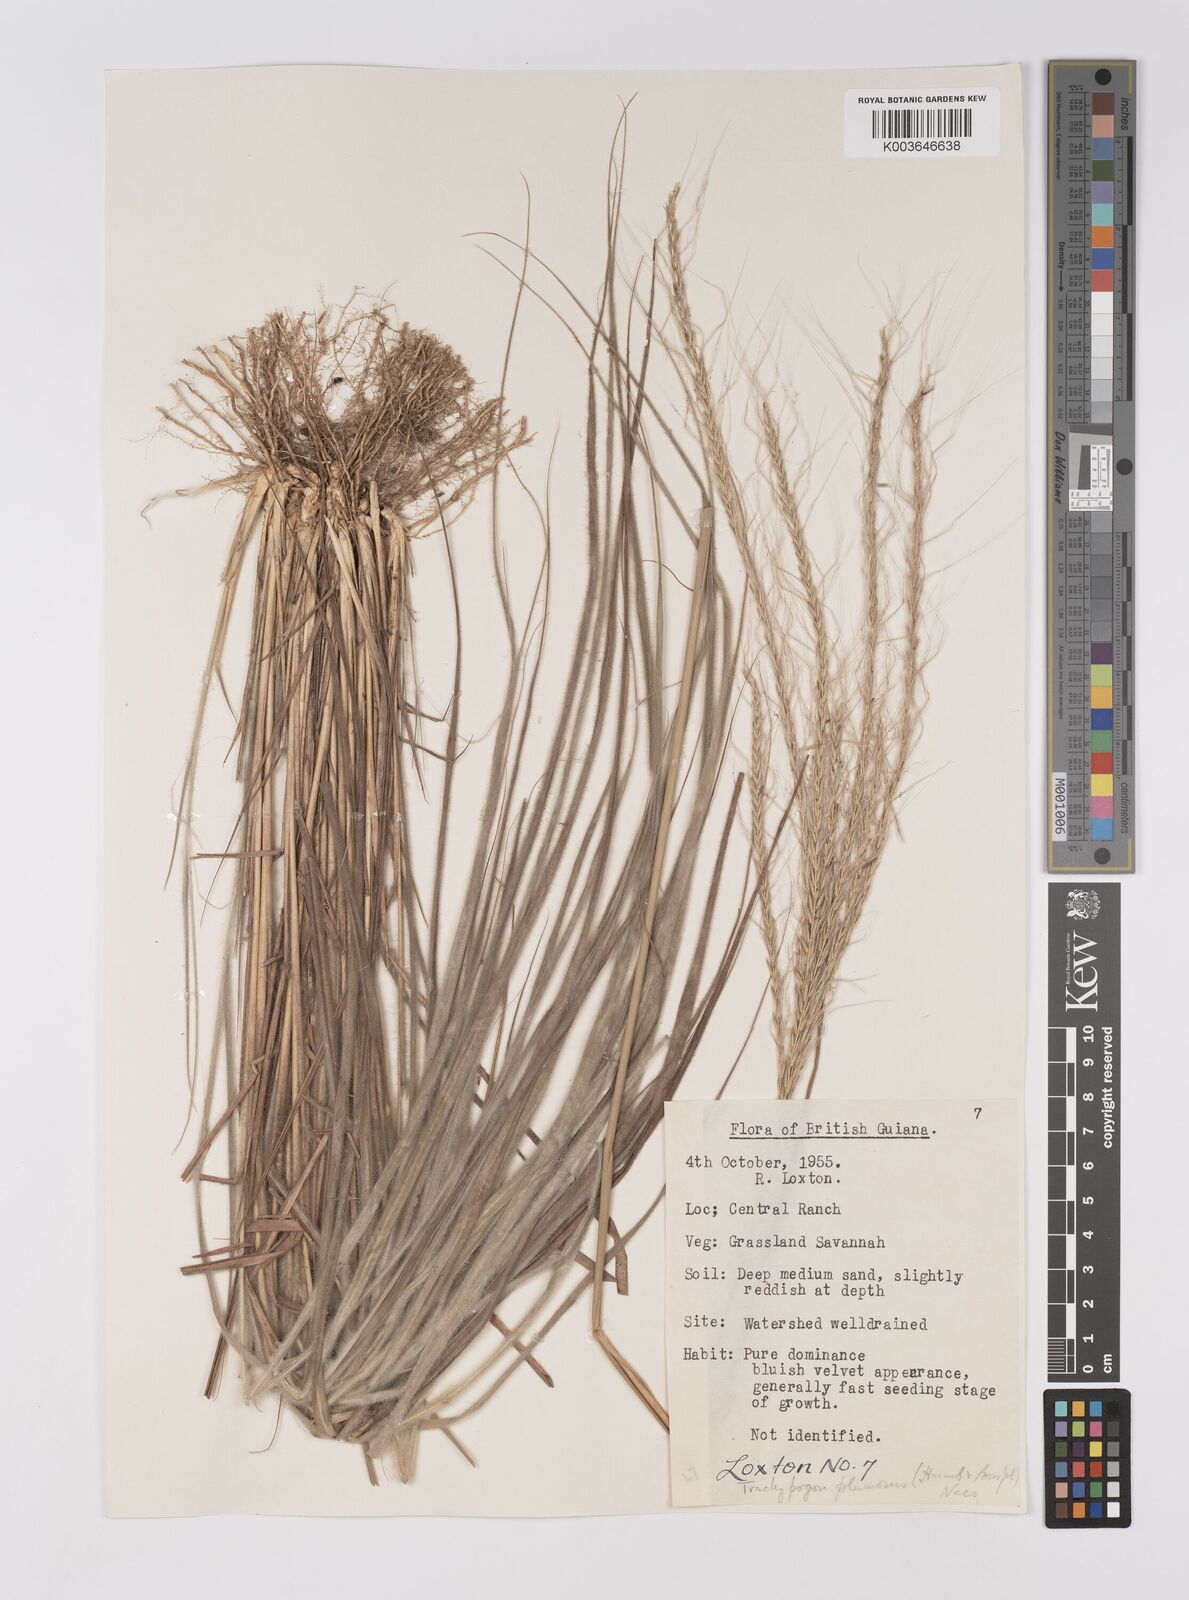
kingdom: Plantae
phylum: Tracheophyta
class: Liliopsida
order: Poales
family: Poaceae
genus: Trachypogon
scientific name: Trachypogon spicatus
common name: Crinkle-awn
